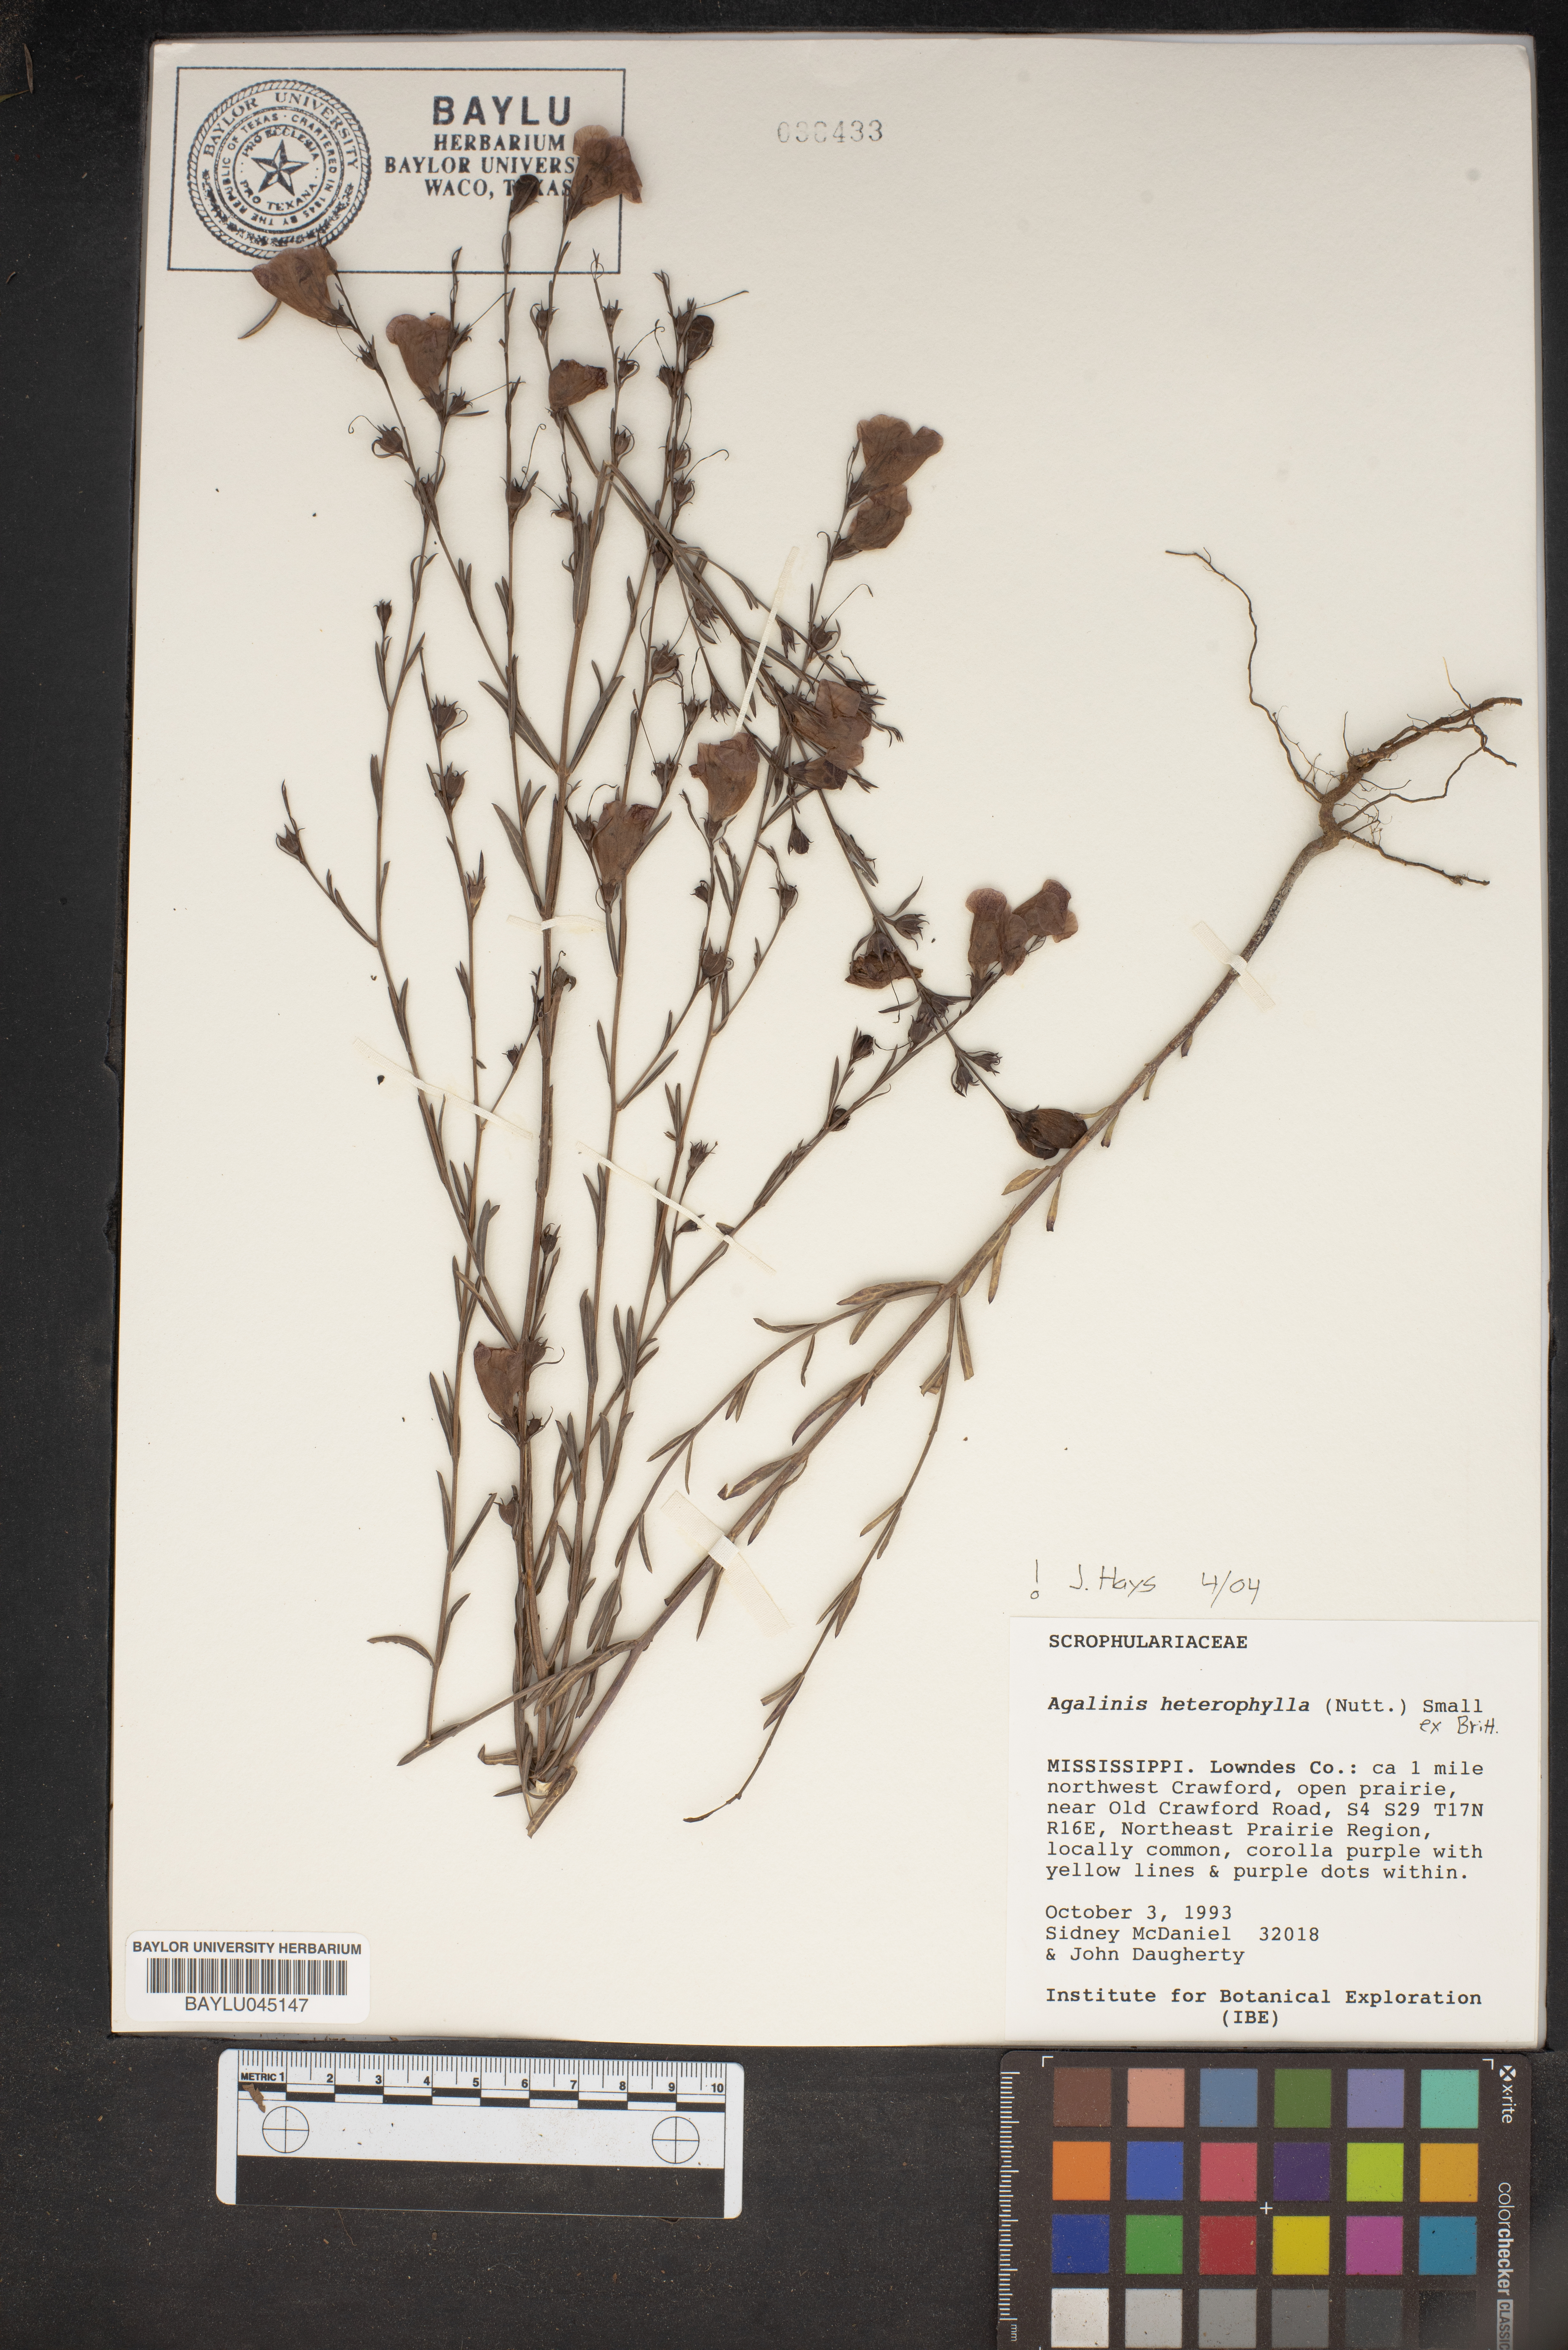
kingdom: Plantae
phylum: Tracheophyta
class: Magnoliopsida
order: Lamiales
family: Orobanchaceae
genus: Agalinis
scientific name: Agalinis heterophylla
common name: Prairie agalinis
